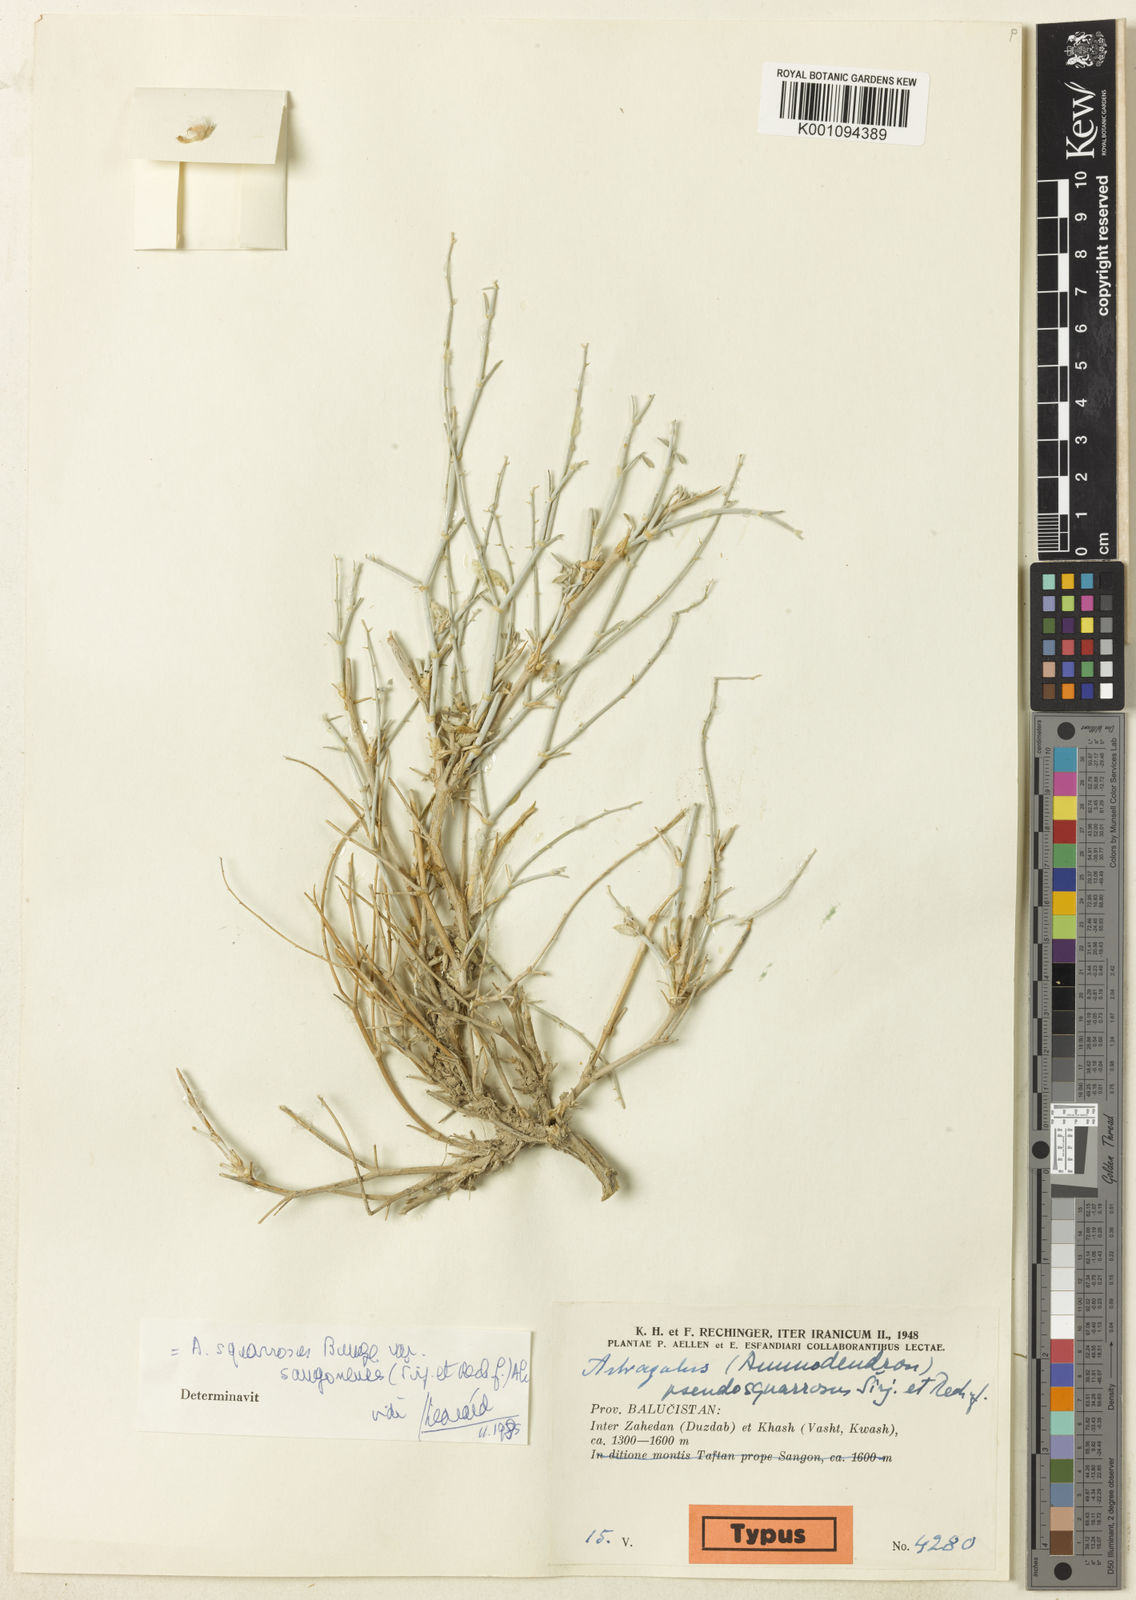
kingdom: Plantae
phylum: Tracheophyta
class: Magnoliopsida
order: Fabales
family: Fabaceae
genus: Astragalus
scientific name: Astragalus
